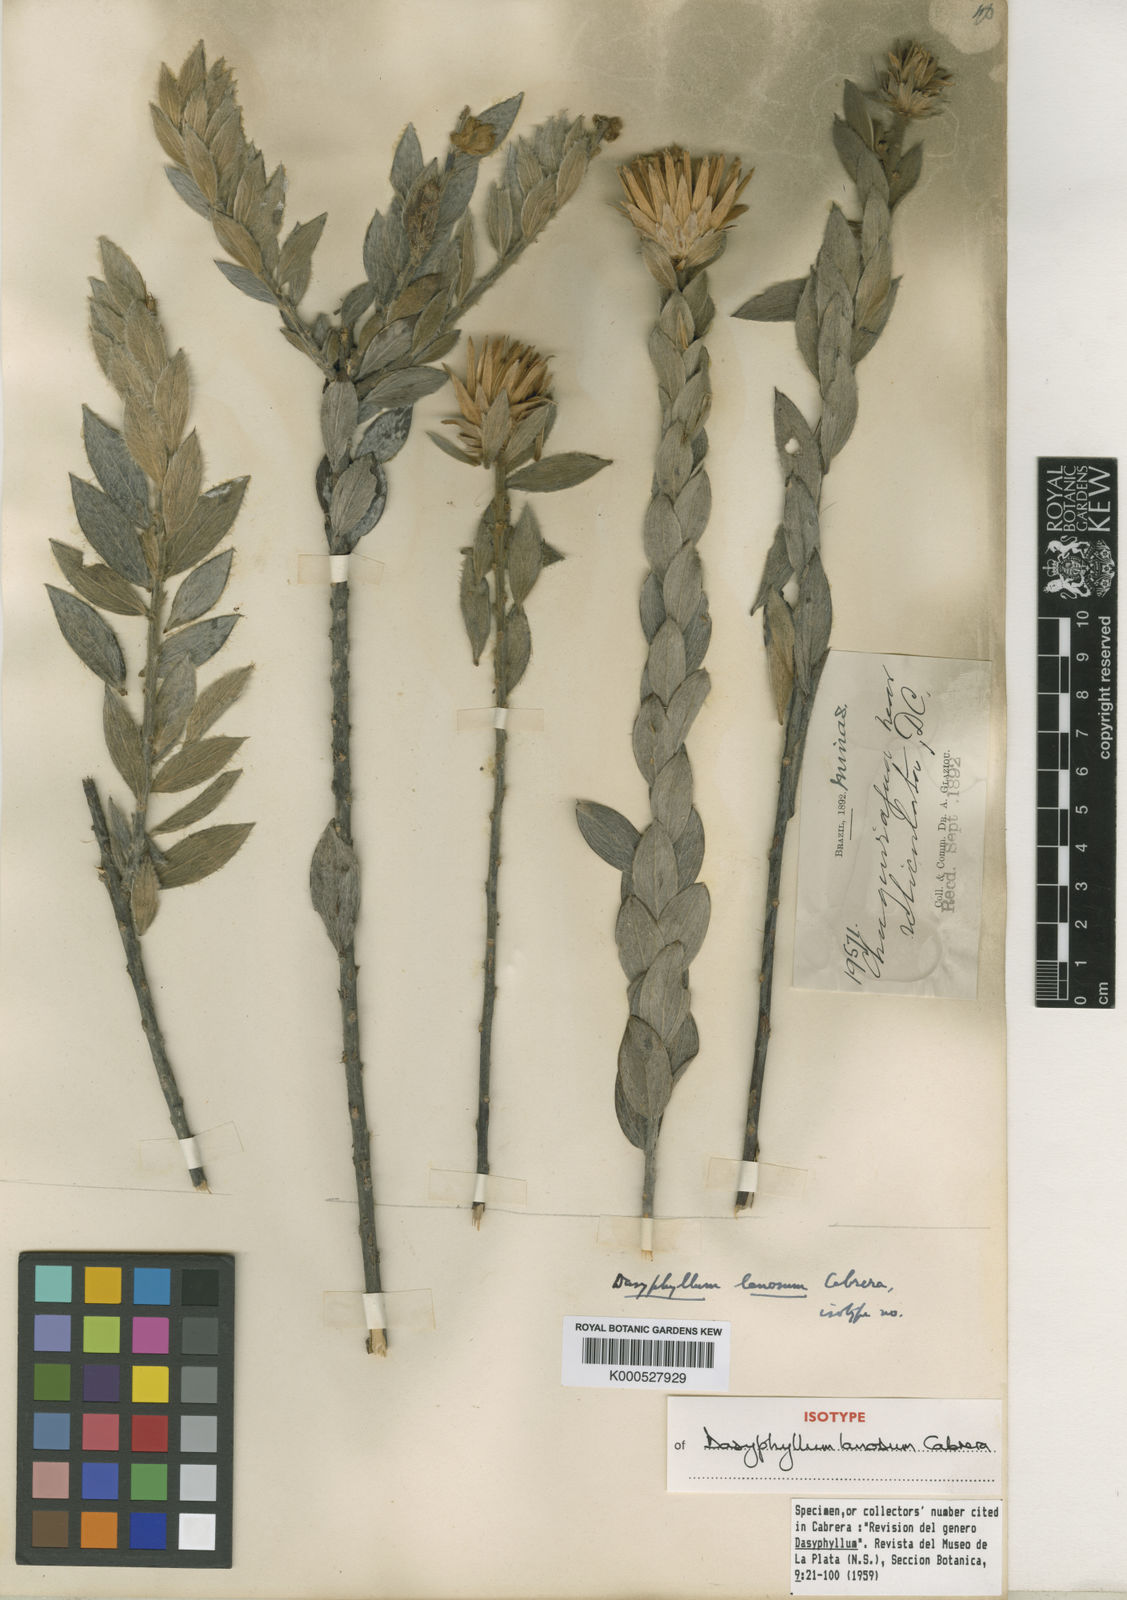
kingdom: Plantae
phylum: Tracheophyta
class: Magnoliopsida
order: Asterales
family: Asteraceae
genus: Dasyphyllum
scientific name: Dasyphyllum reticulatum
